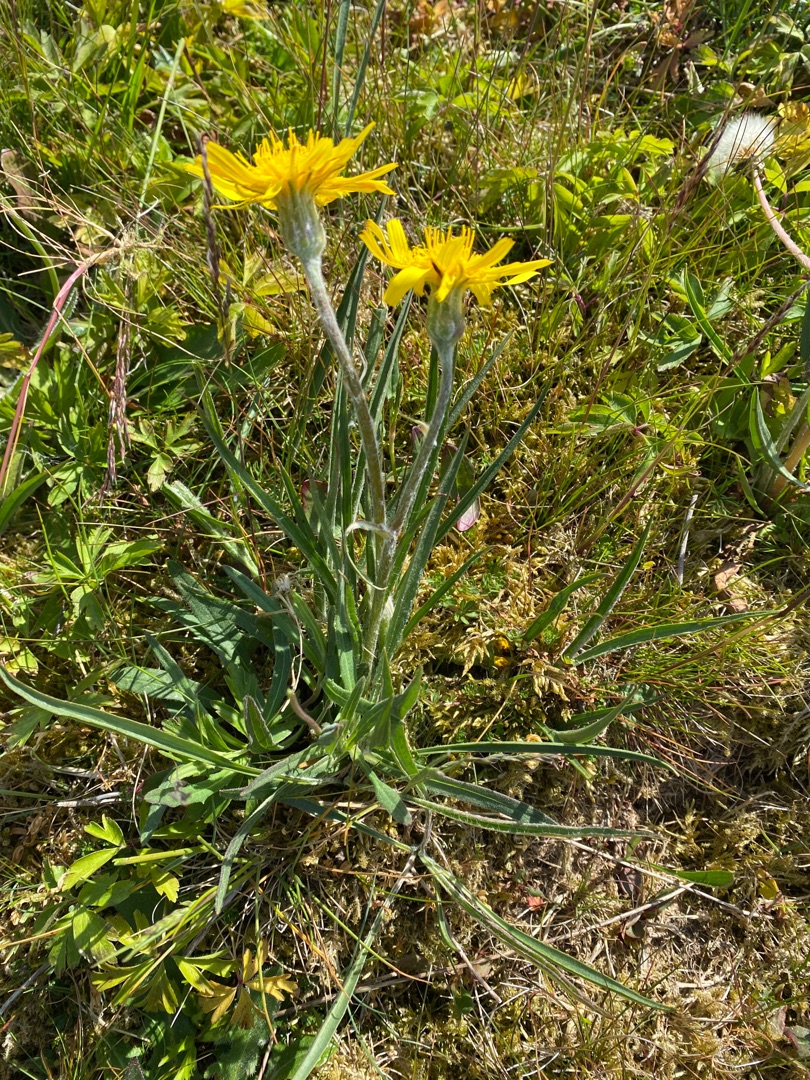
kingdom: Plantae
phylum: Tracheophyta
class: Magnoliopsida
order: Asterales
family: Asteraceae
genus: Scorzonera
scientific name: Scorzonera humilis
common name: Lav skorsoner
